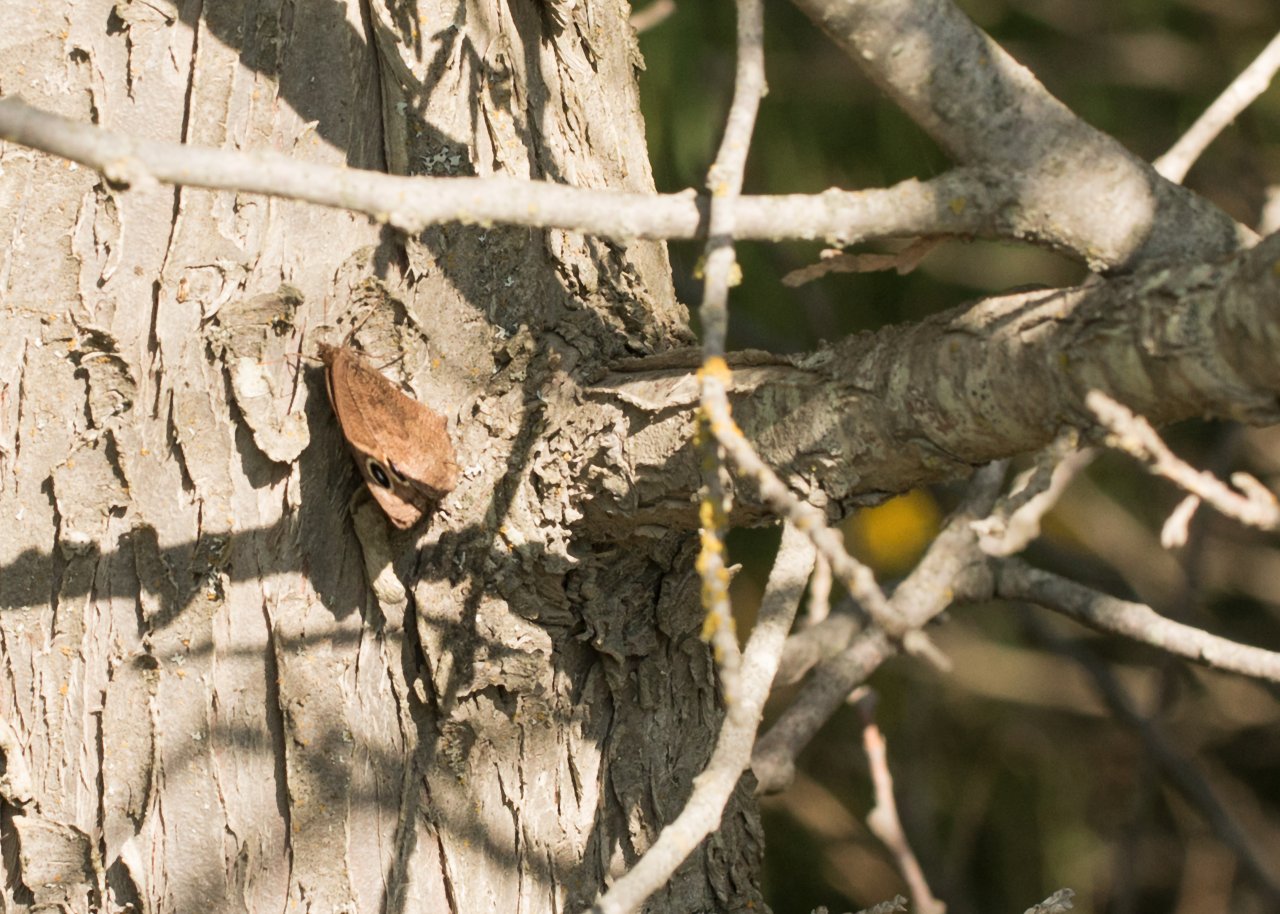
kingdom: Animalia
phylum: Arthropoda
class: Insecta
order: Lepidoptera
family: Nymphalidae
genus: Cercyonis
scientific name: Cercyonis pegala
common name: Common Wood-Nymph
